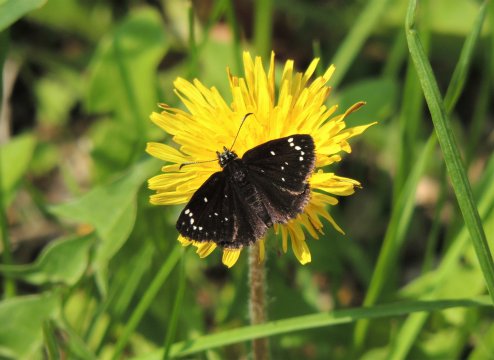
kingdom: Animalia
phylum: Arthropoda
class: Insecta
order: Lepidoptera
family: Hesperiidae
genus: Pholisora
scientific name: Pholisora catullus
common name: Common Sootywing
